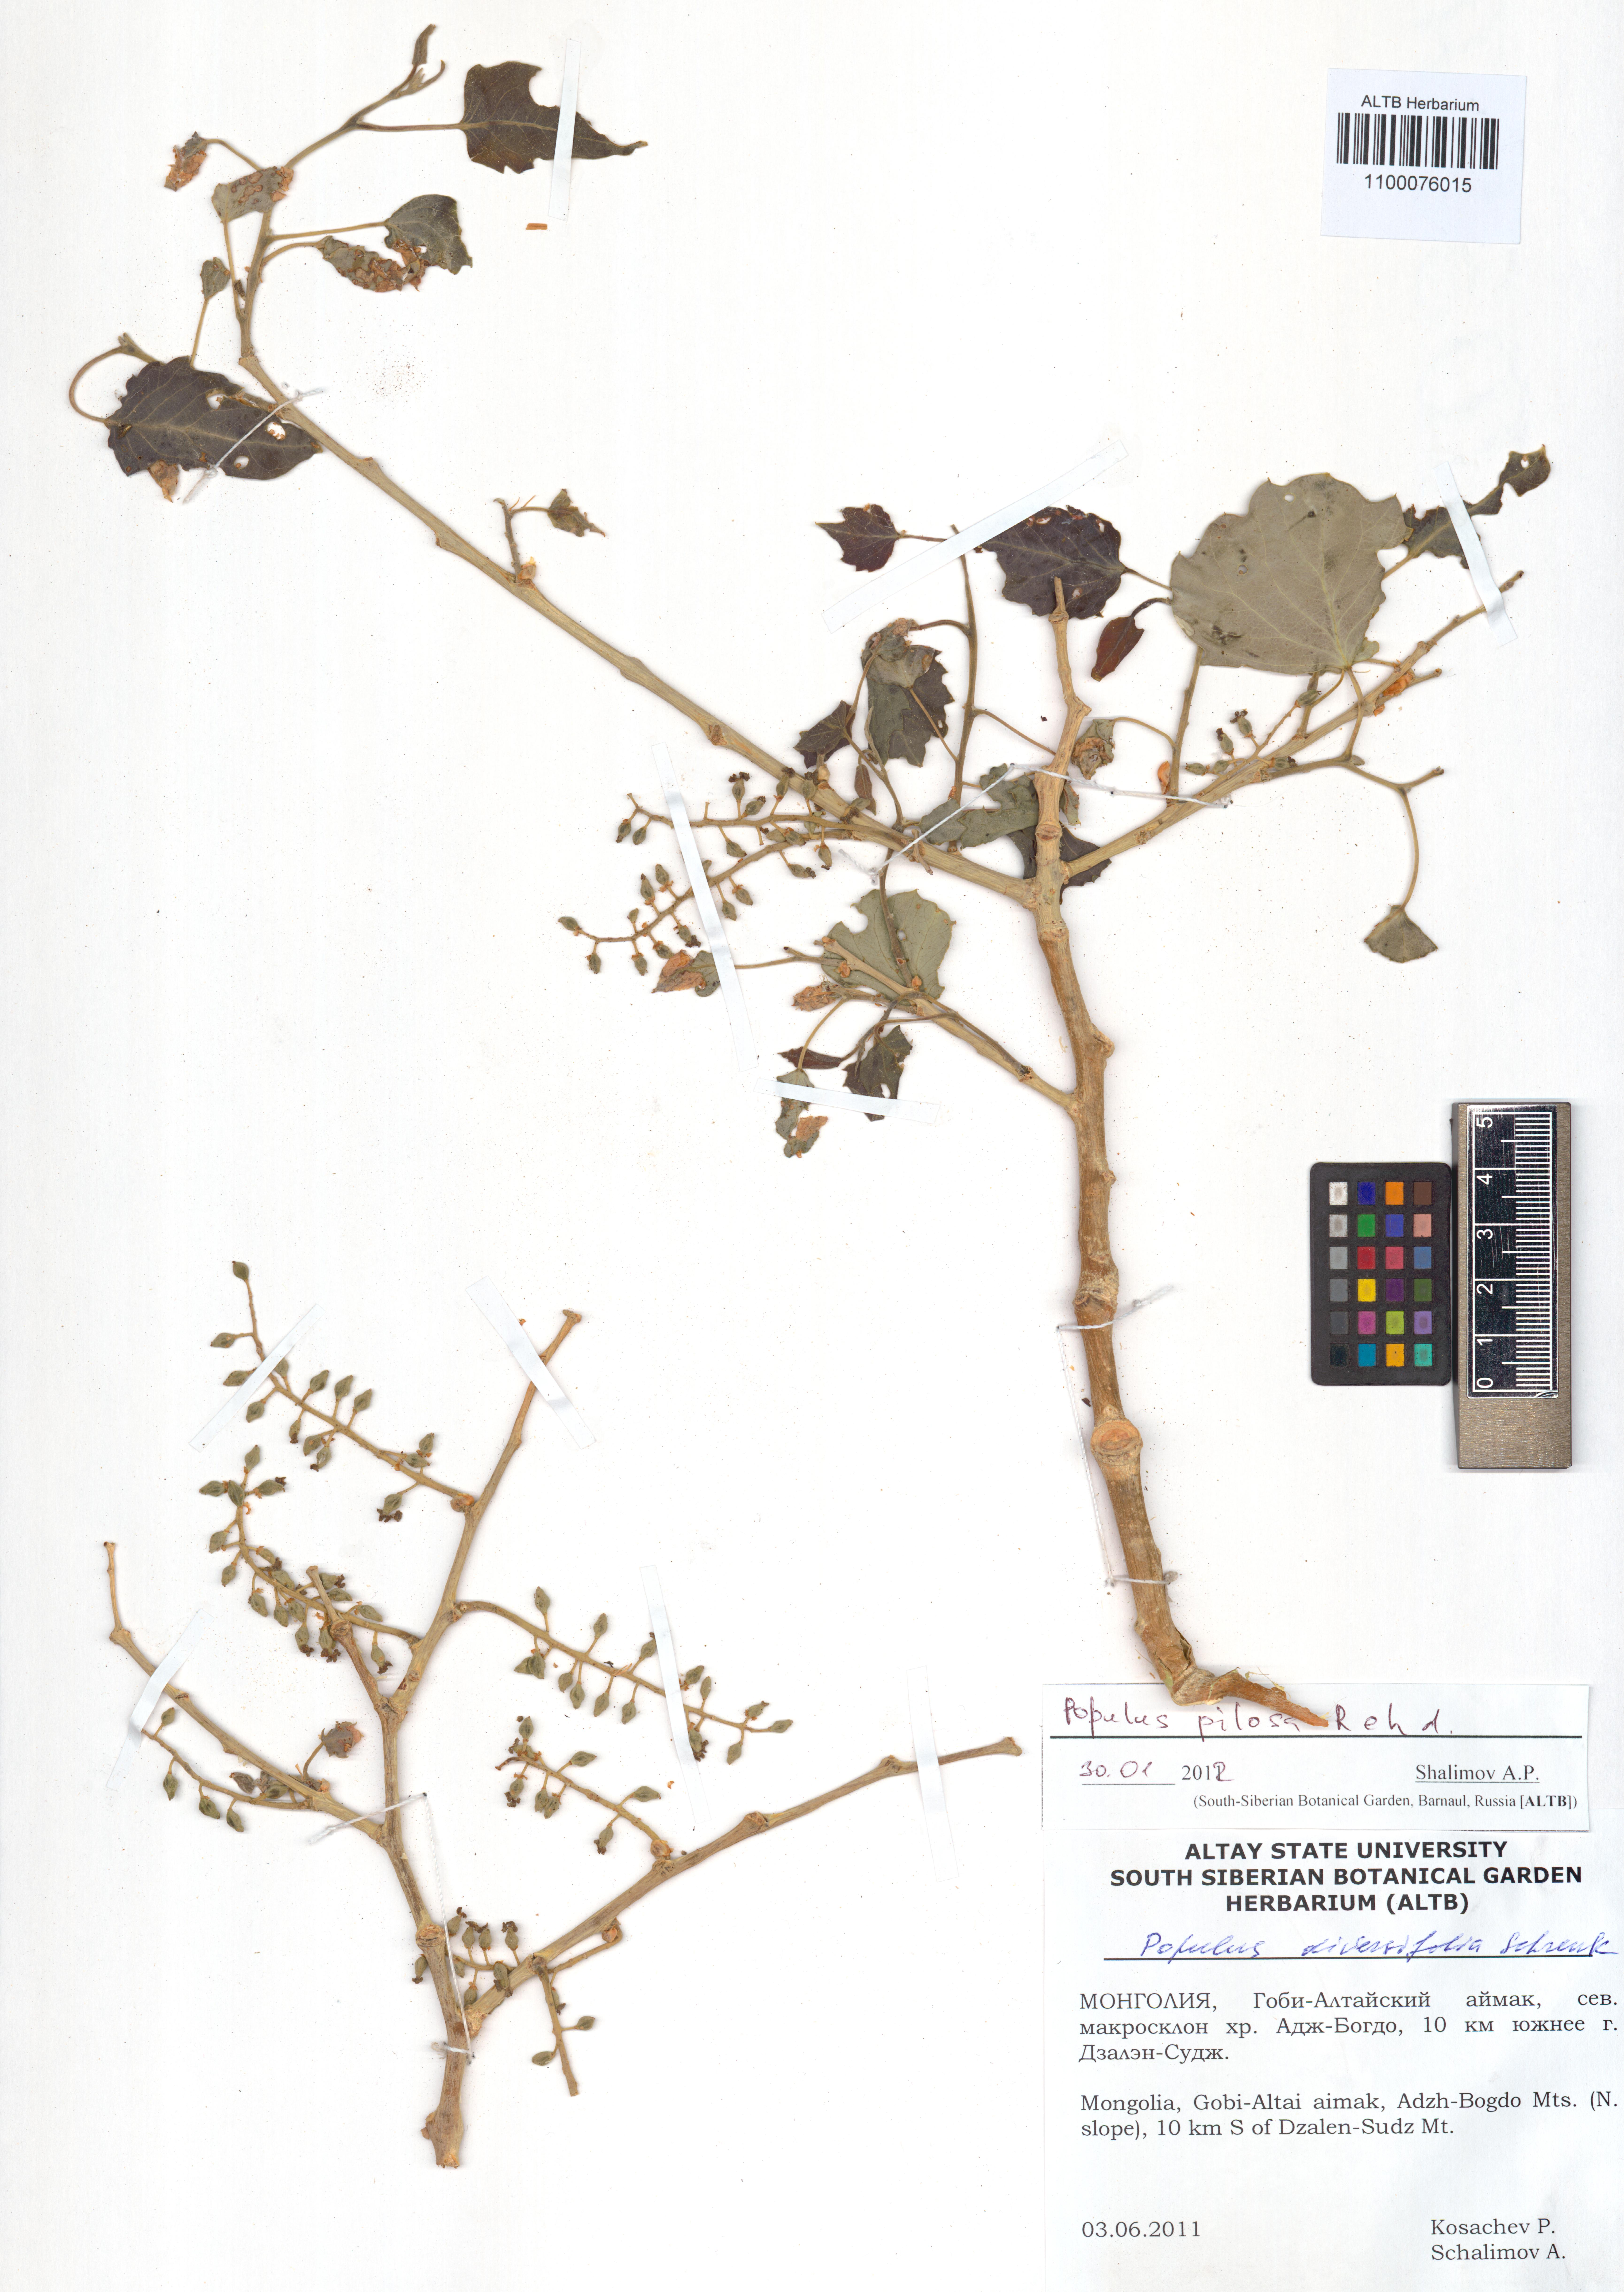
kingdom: Plantae
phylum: Tracheophyta
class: Magnoliopsida
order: Malpighiales
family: Salicaceae
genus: Populus
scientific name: Populus laurifolia
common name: Laurel-leaf poplar
